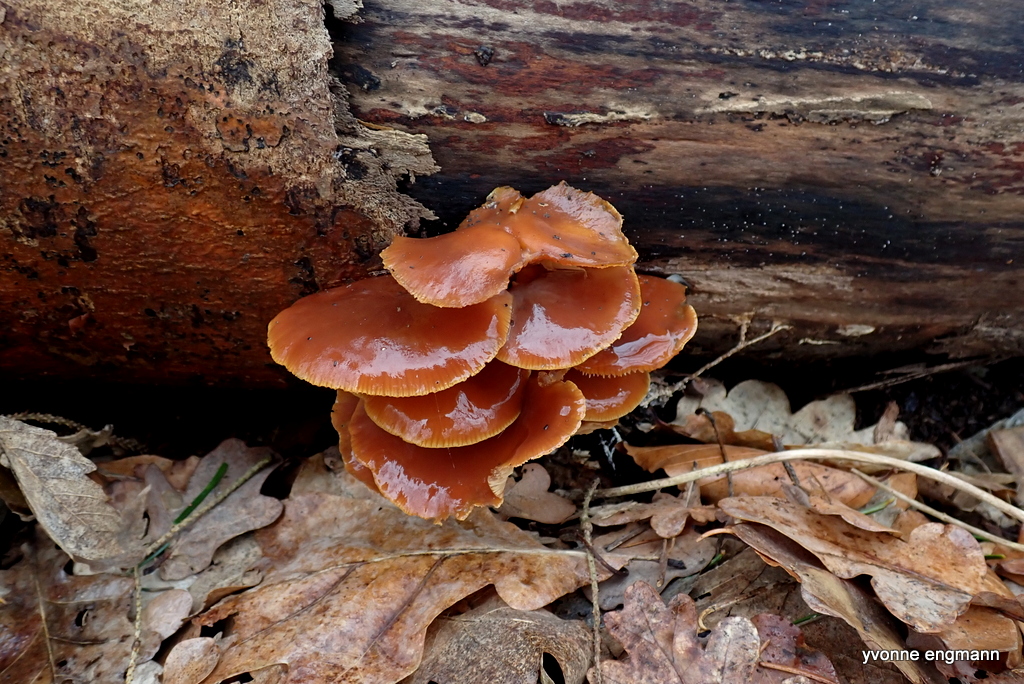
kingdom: Fungi
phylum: Basidiomycota
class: Agaricomycetes
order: Agaricales
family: Physalacriaceae
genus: Flammulina
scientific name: Flammulina
